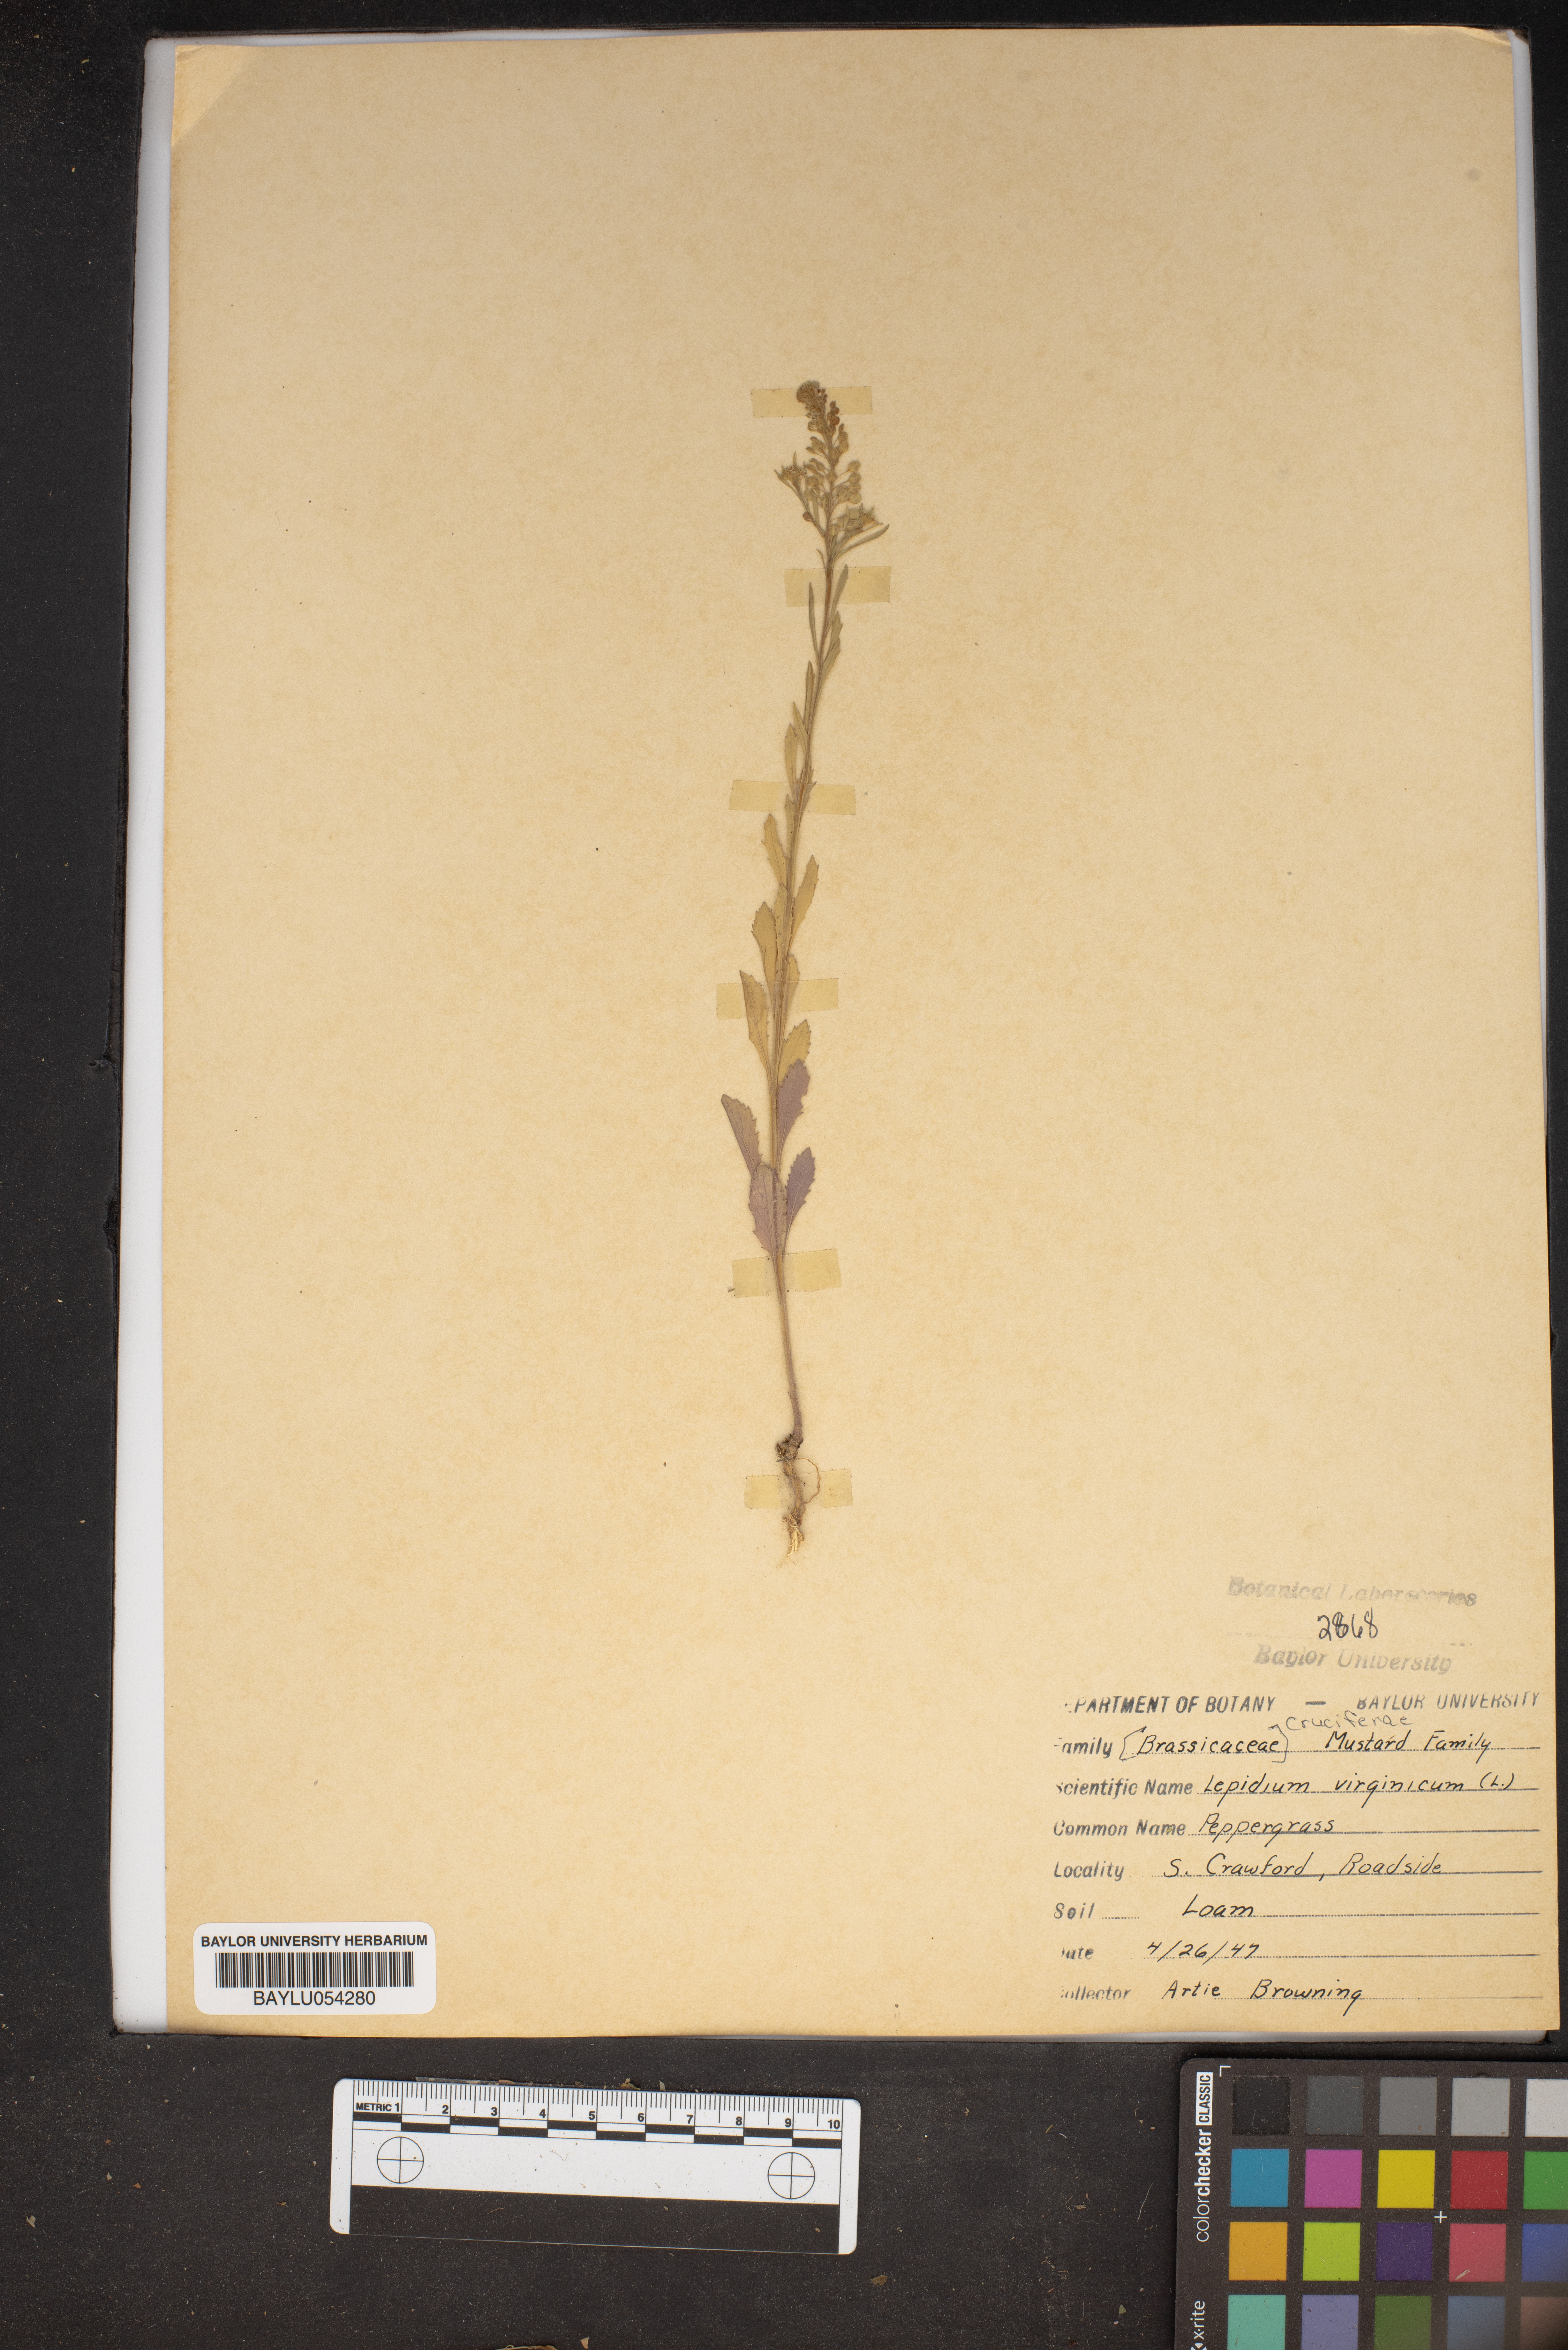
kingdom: Plantae
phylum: Tracheophyta
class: Magnoliopsida
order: Brassicales
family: Brassicaceae
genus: Lepidium
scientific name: Lepidium virginicum
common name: Least pepperwort
